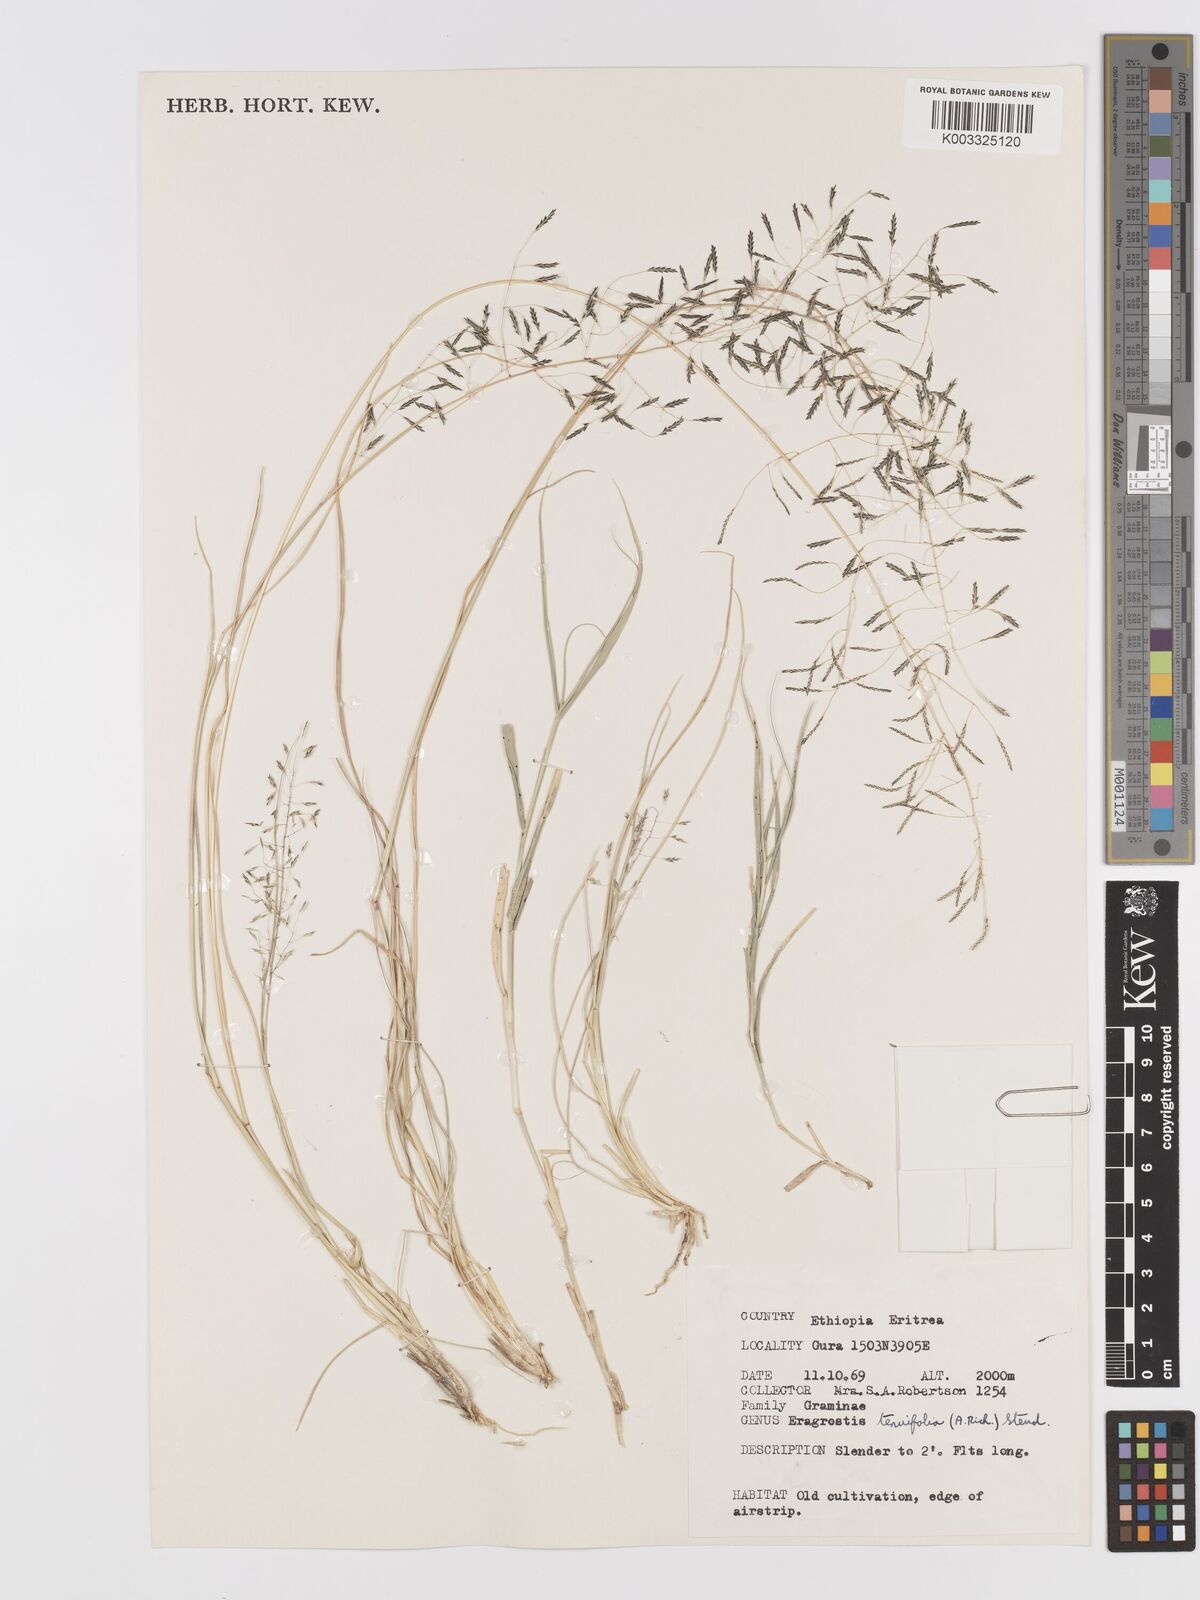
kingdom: Plantae
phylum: Tracheophyta
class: Liliopsida
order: Poales
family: Poaceae
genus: Eragrostis
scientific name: Eragrostis tenuifolia
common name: Elastic grass
